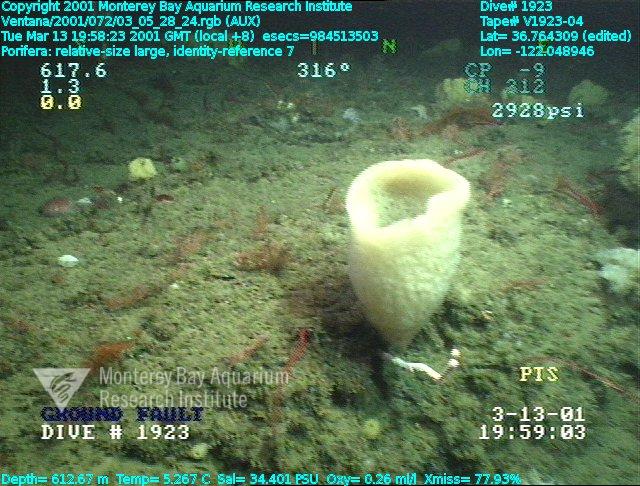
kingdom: Animalia
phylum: Porifera
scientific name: Porifera
